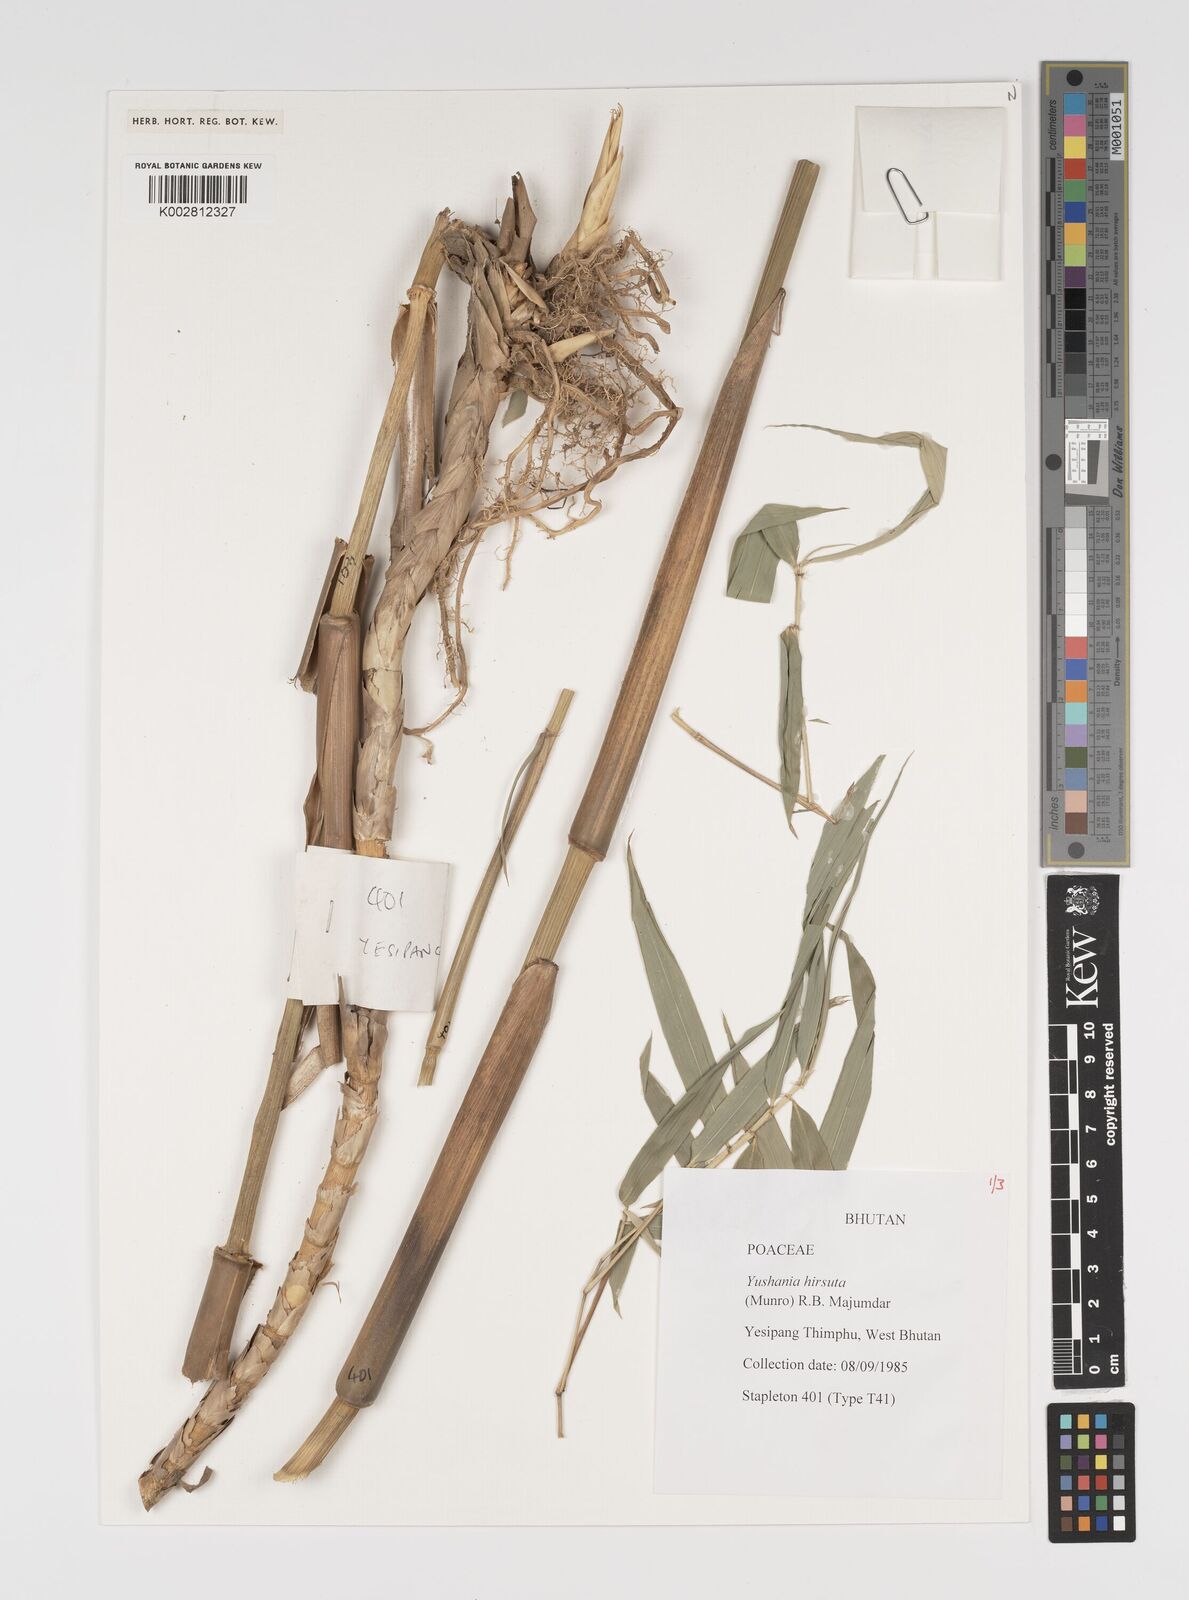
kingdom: Plantae
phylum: Tracheophyta
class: Liliopsida
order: Poales
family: Poaceae
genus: Yushania
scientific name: Yushania hirsuta
